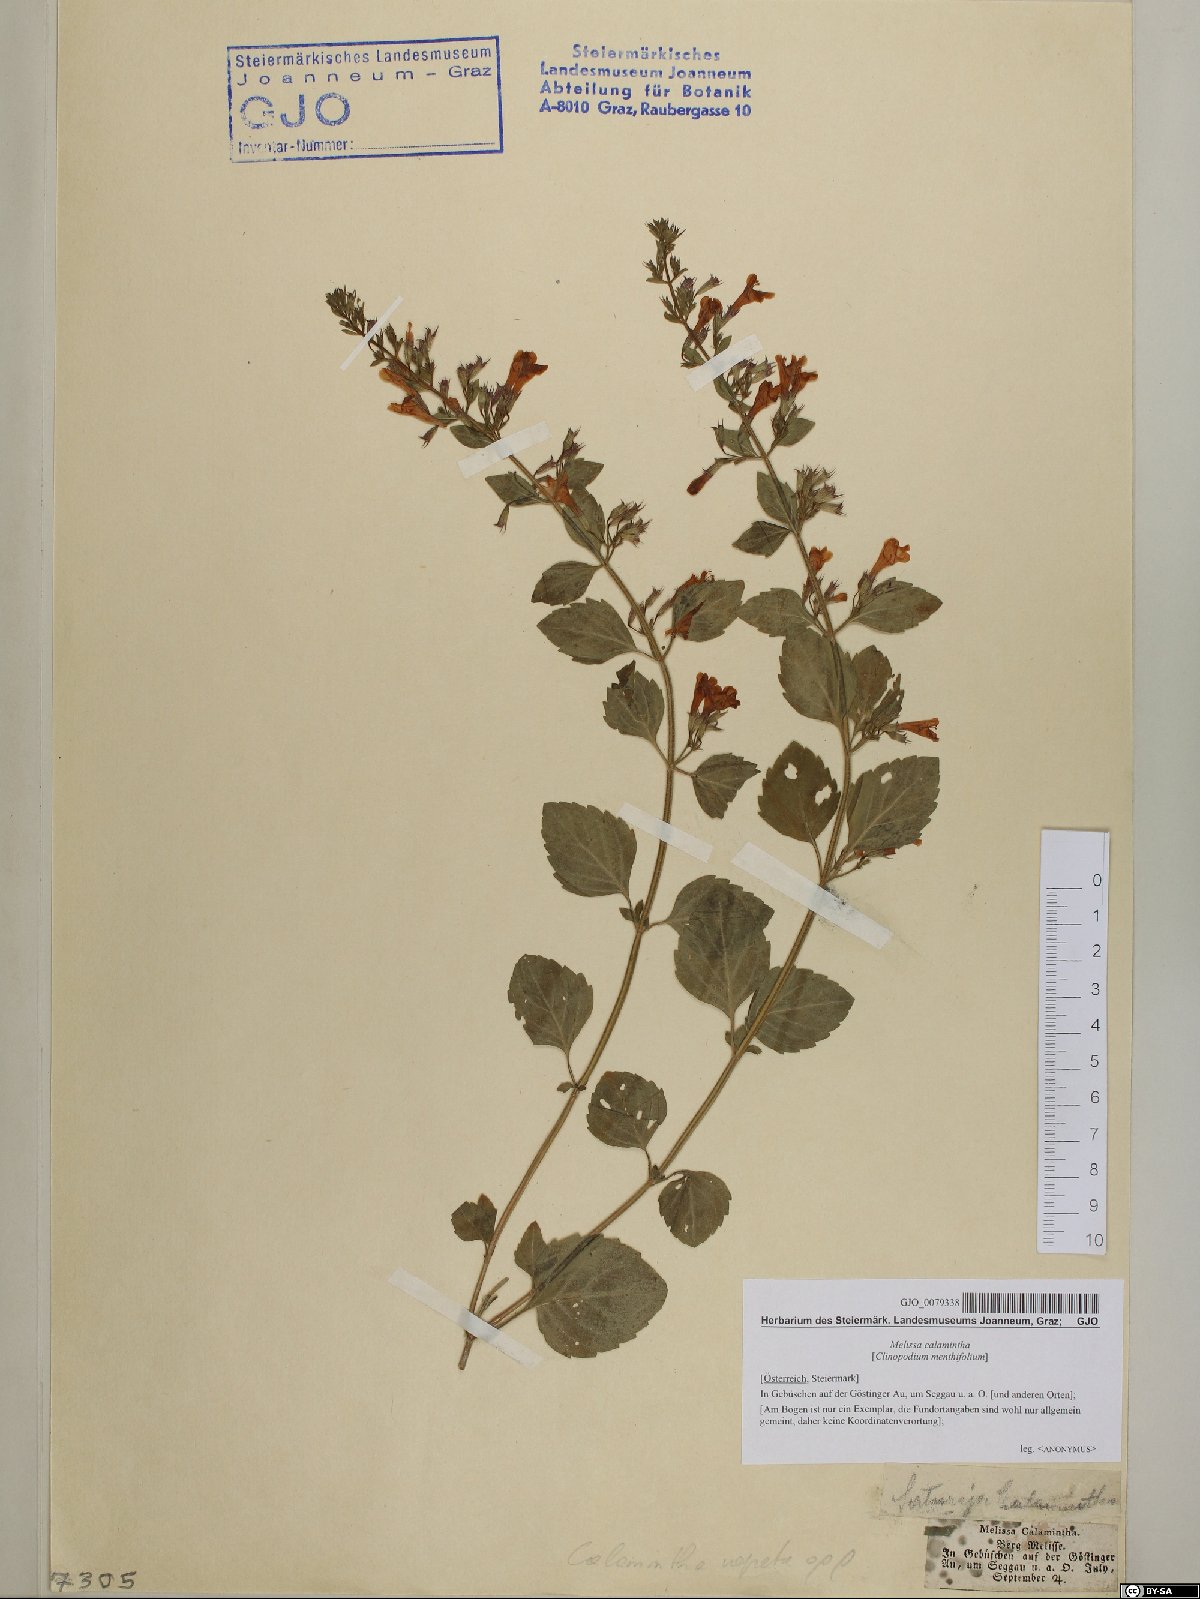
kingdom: Plantae
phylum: Tracheophyta
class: Magnoliopsida
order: Lamiales
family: Lamiaceae
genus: Clinopodium
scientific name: Clinopodium nepeta
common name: Lesser calamint
